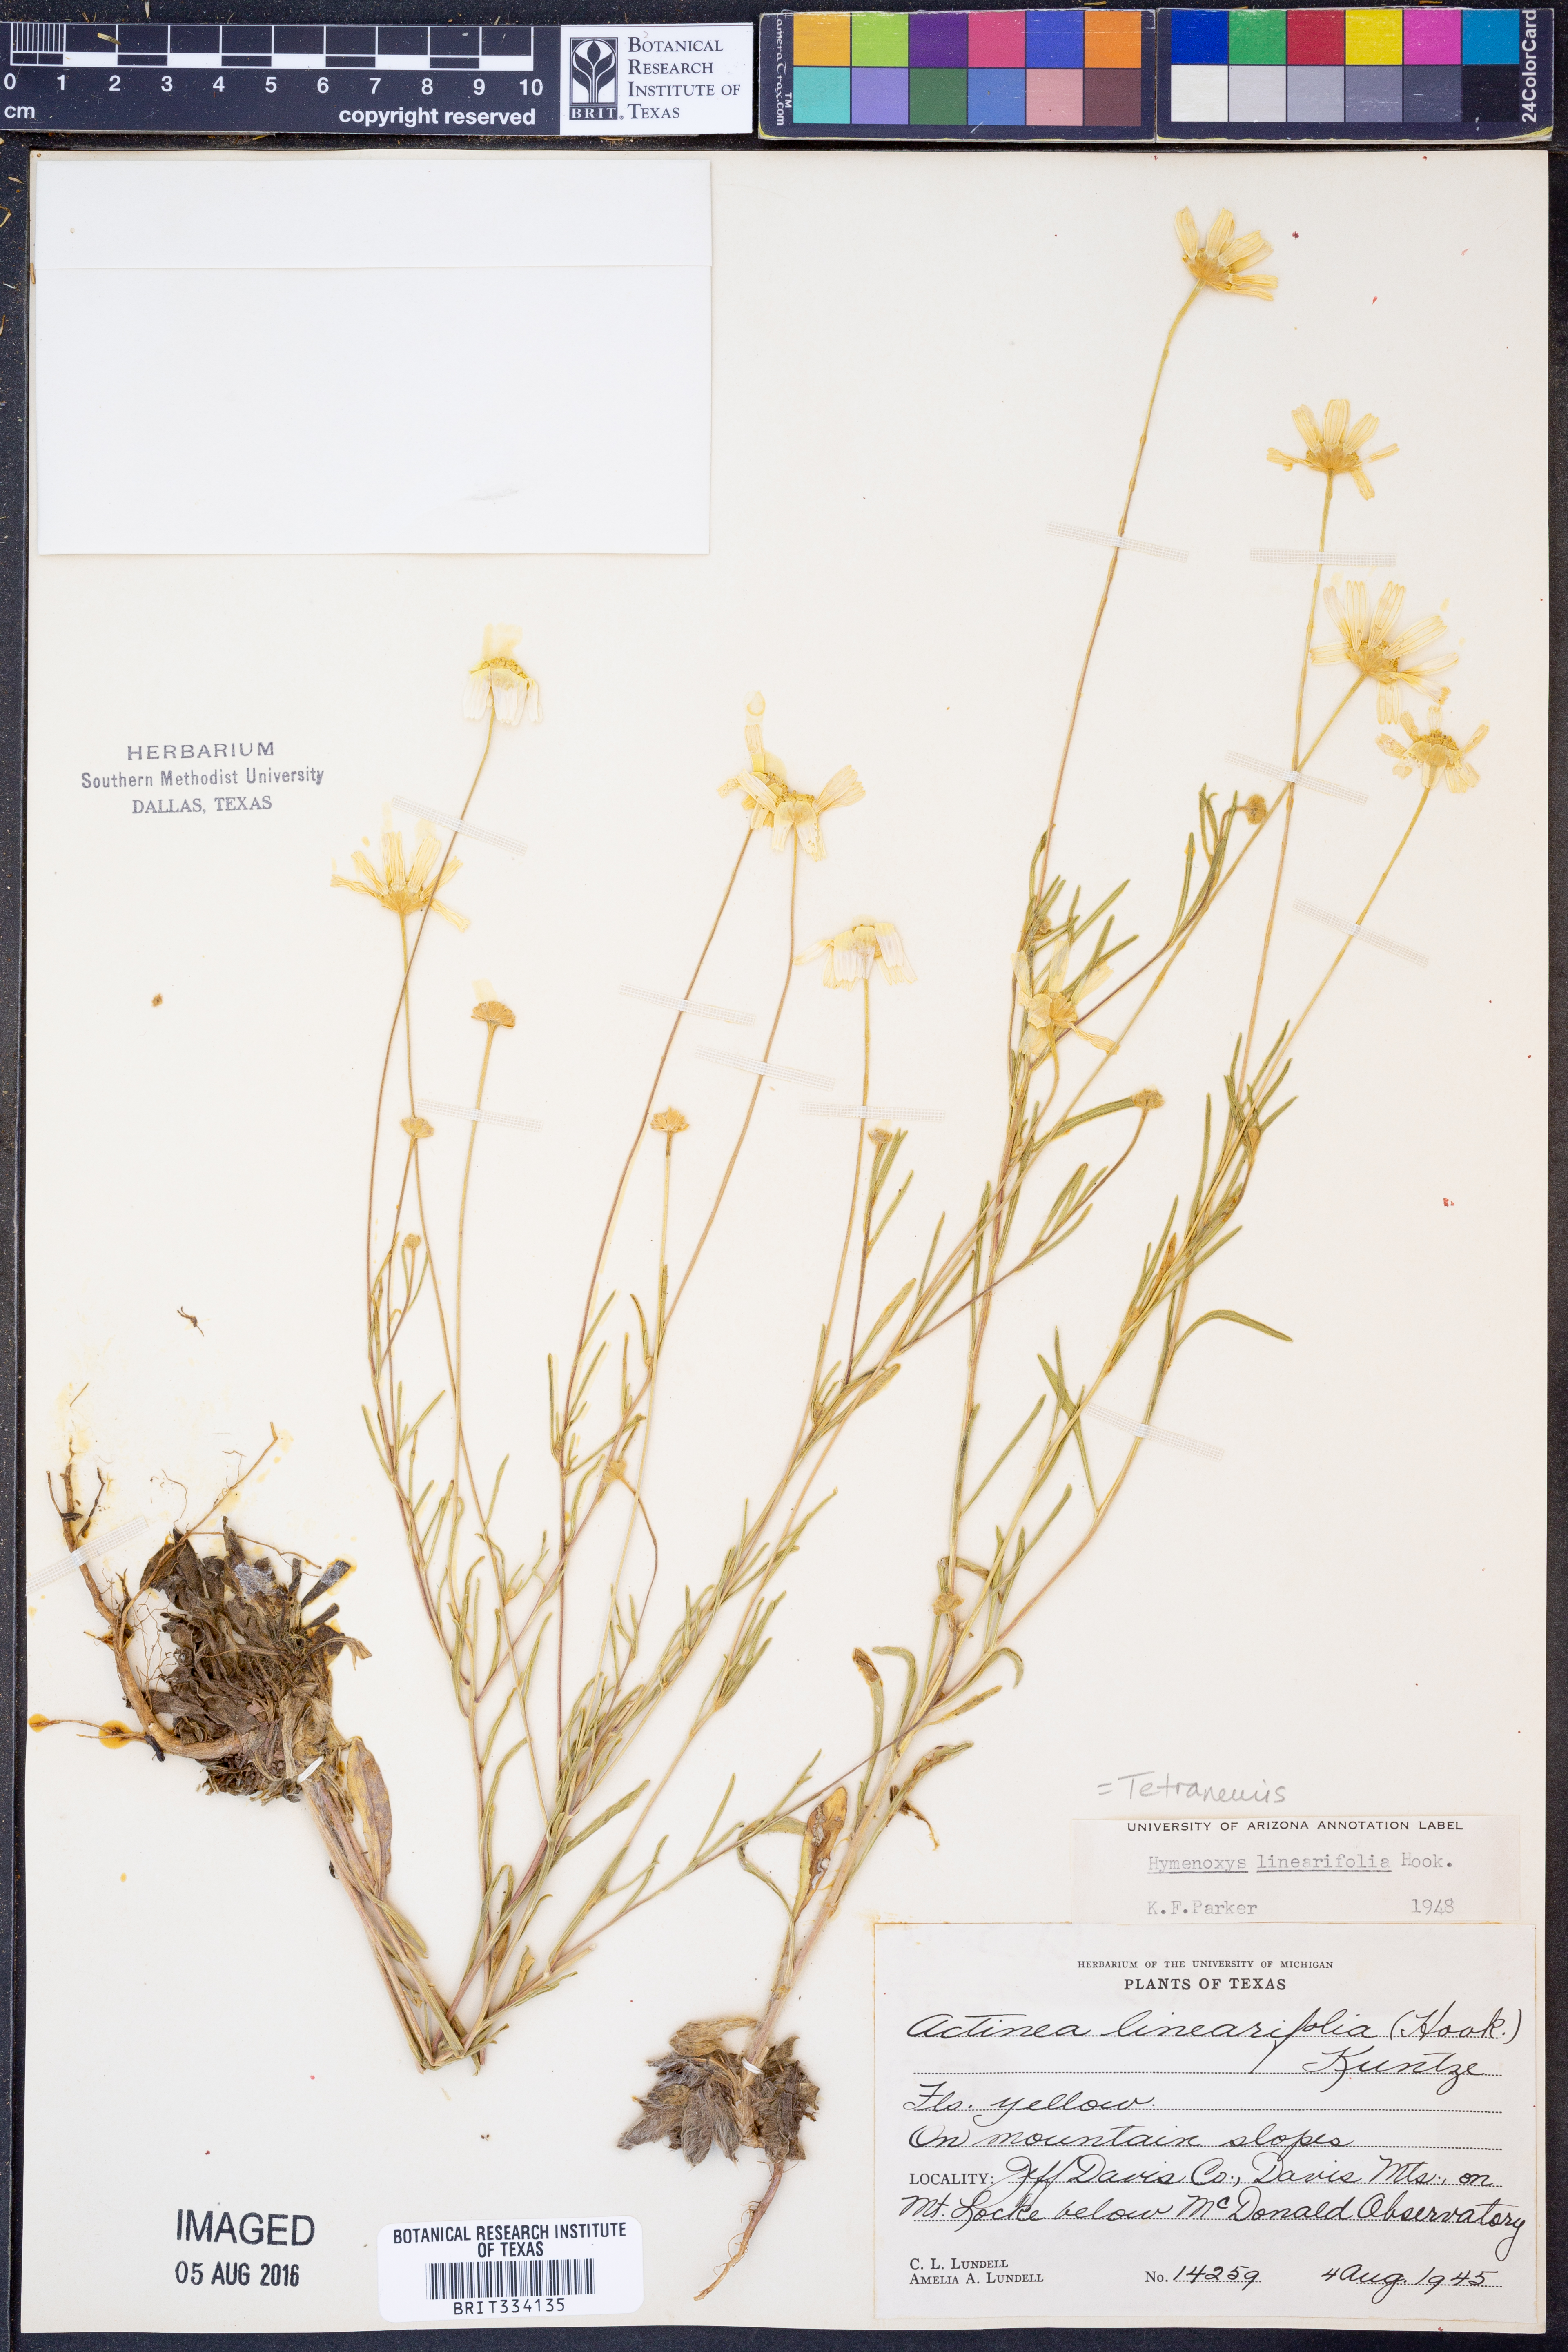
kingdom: Plantae
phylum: Tracheophyta
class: Magnoliopsida
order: Asterales
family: Asteraceae
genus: Tetraneuris
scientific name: Tetraneuris linearifolia
